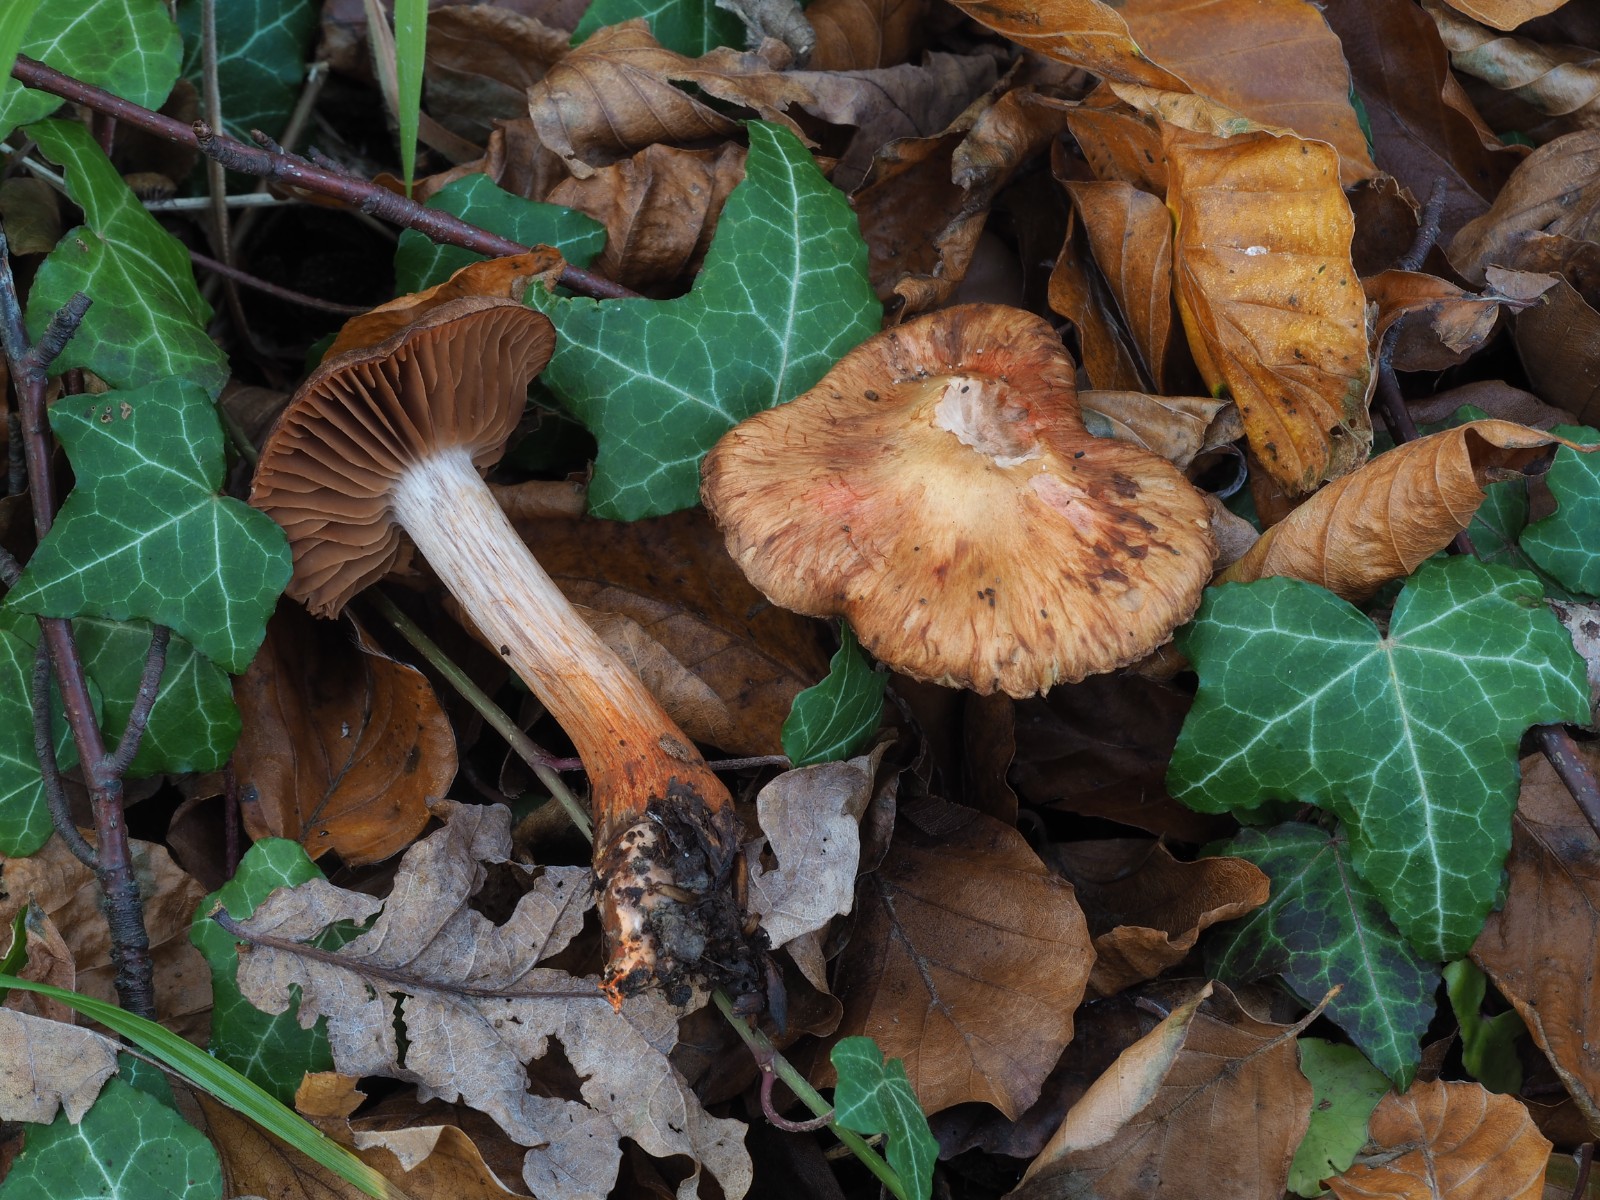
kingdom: Fungi
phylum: Basidiomycota
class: Agaricomycetes
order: Agaricales
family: Cortinariaceae
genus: Cortinarius
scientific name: Cortinarius bulliardii
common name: Bulliards slørhat
